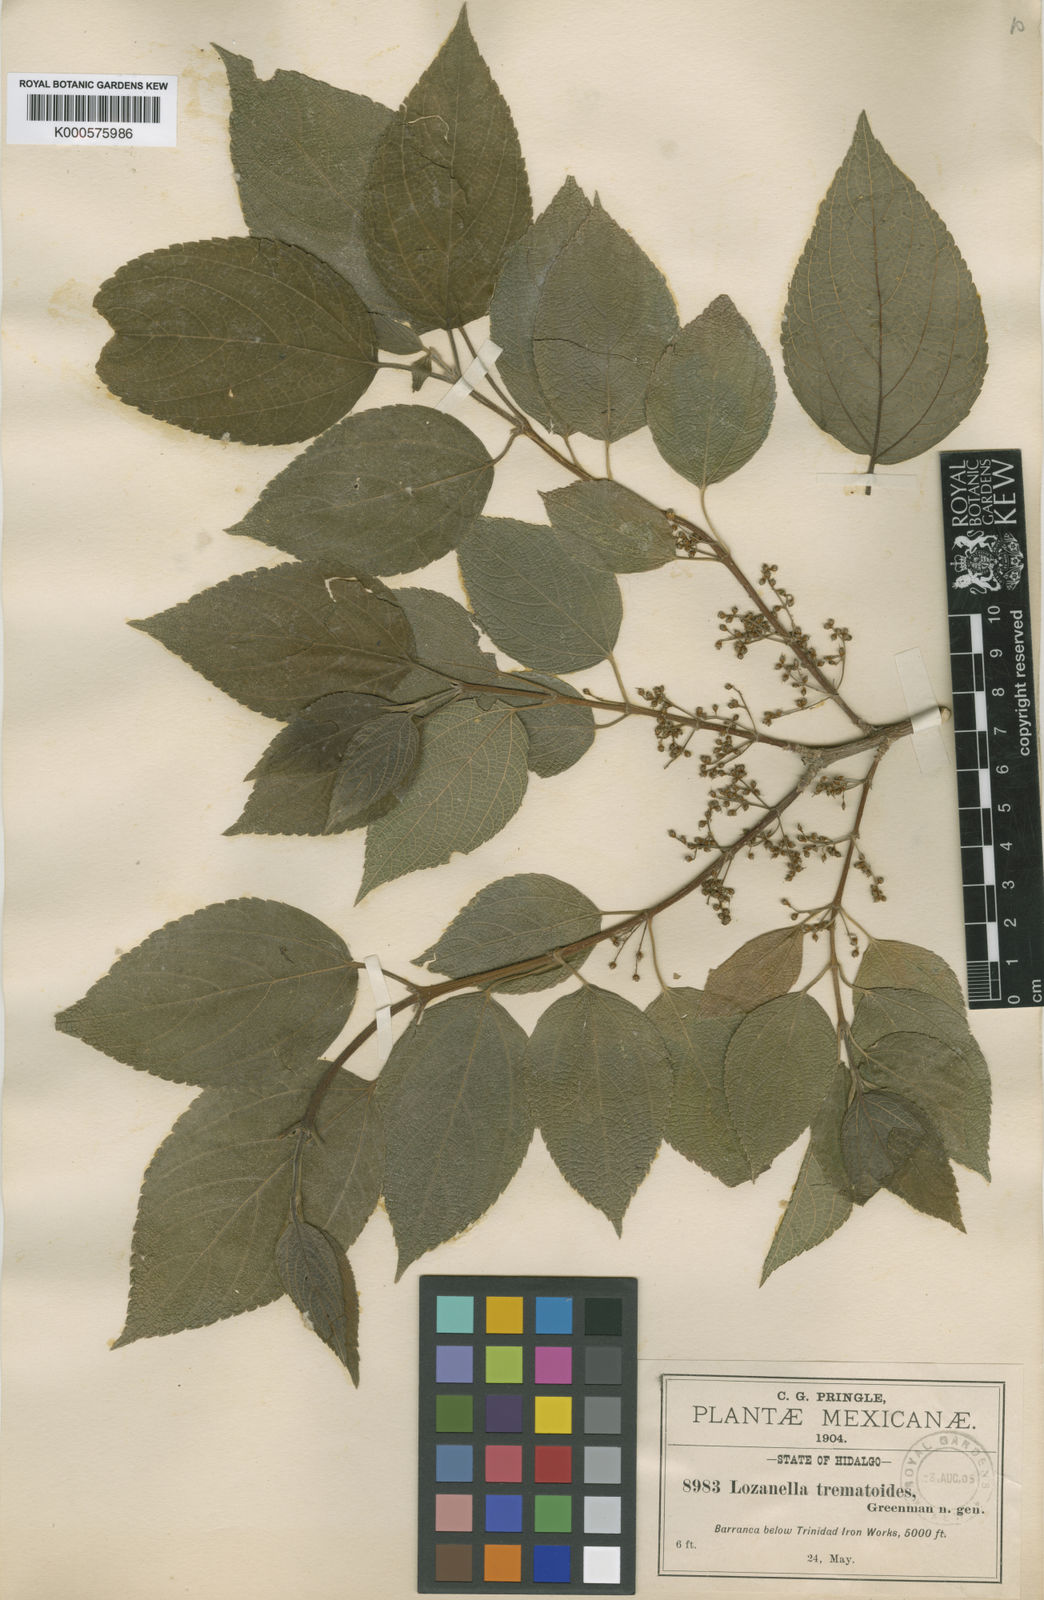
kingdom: Plantae
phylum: Tracheophyta
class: Magnoliopsida
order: Rosales
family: Cannabaceae
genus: Lozanella
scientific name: Lozanella enantiophylla
